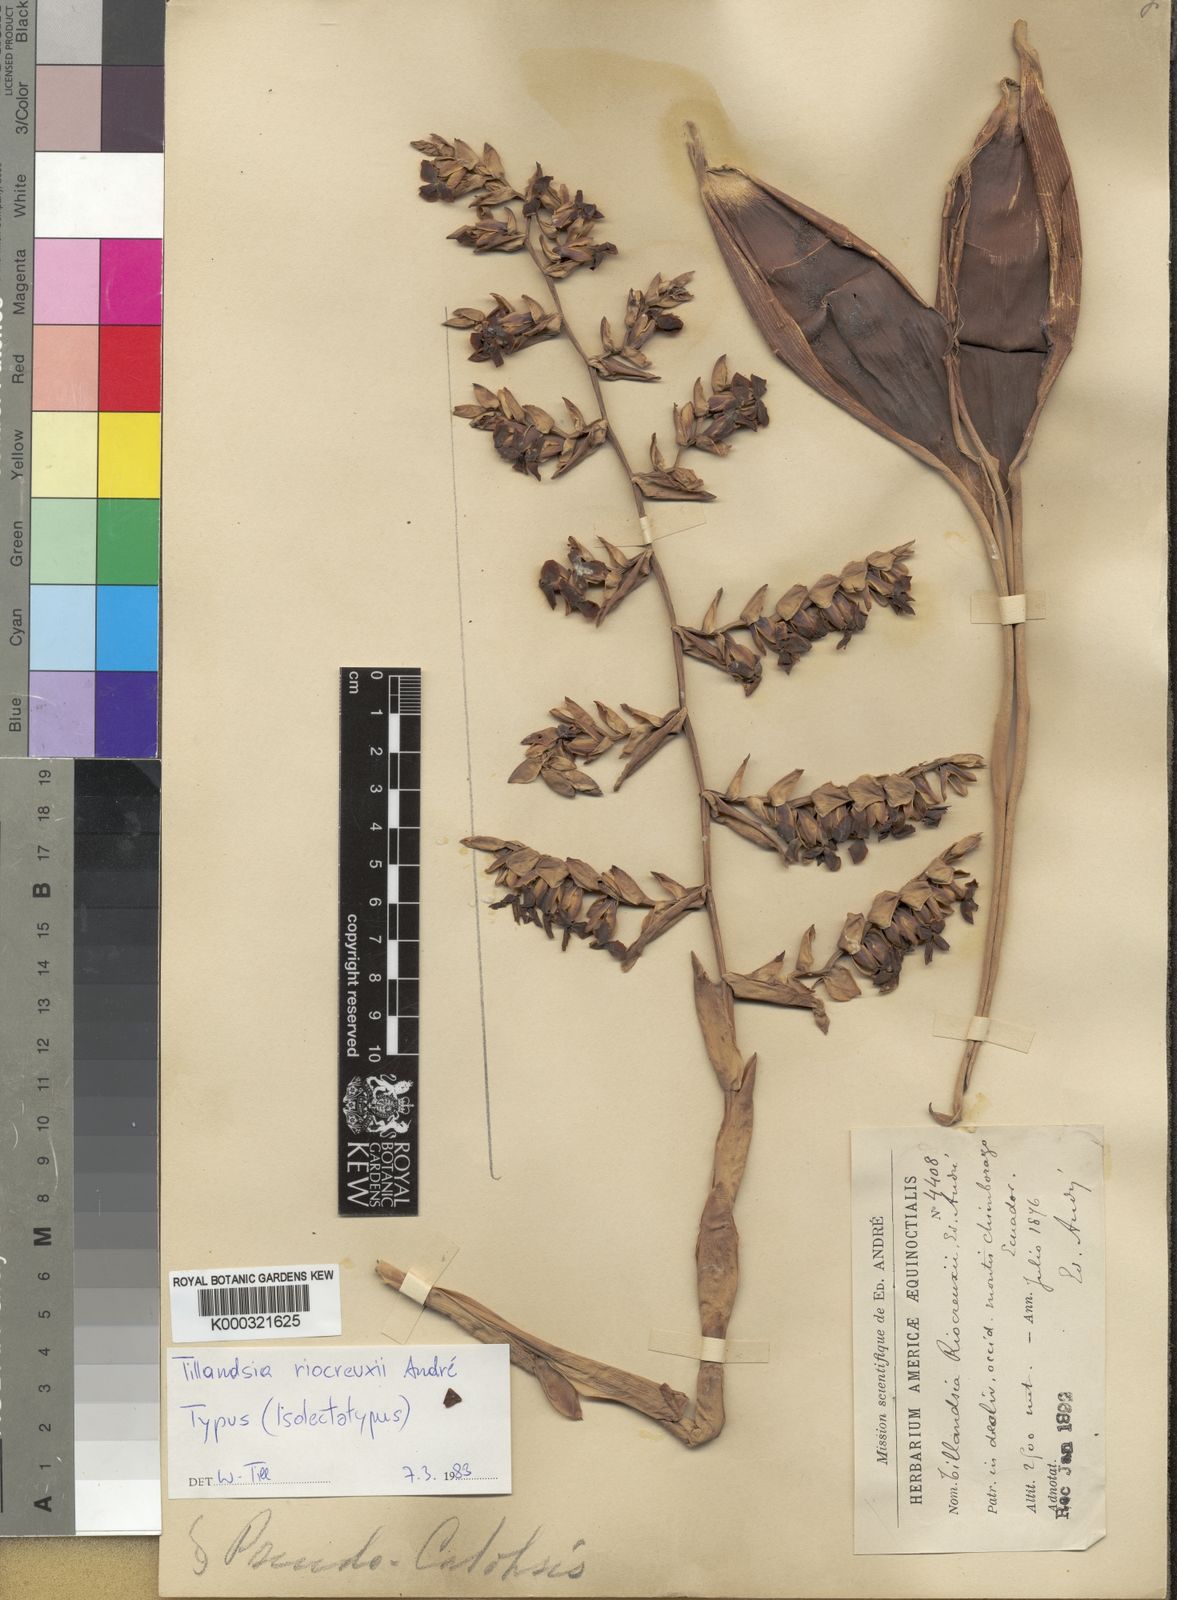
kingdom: Plantae
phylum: Tracheophyta
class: Liliopsida
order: Poales
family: Bromeliaceae
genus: Tillandsia
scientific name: Tillandsia
